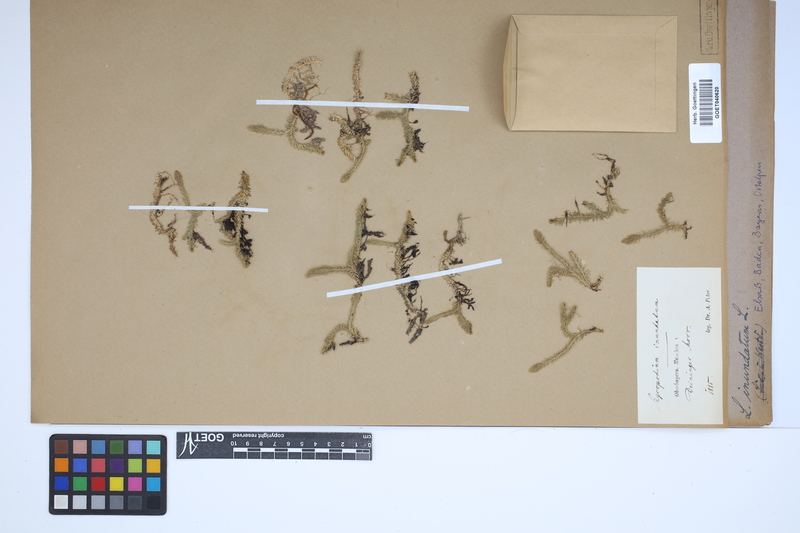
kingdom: Plantae
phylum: Tracheophyta
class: Lycopodiopsida
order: Lycopodiales
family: Lycopodiaceae
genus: Lycopodiella
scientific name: Lycopodiella inundata
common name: Marsh clubmoss
